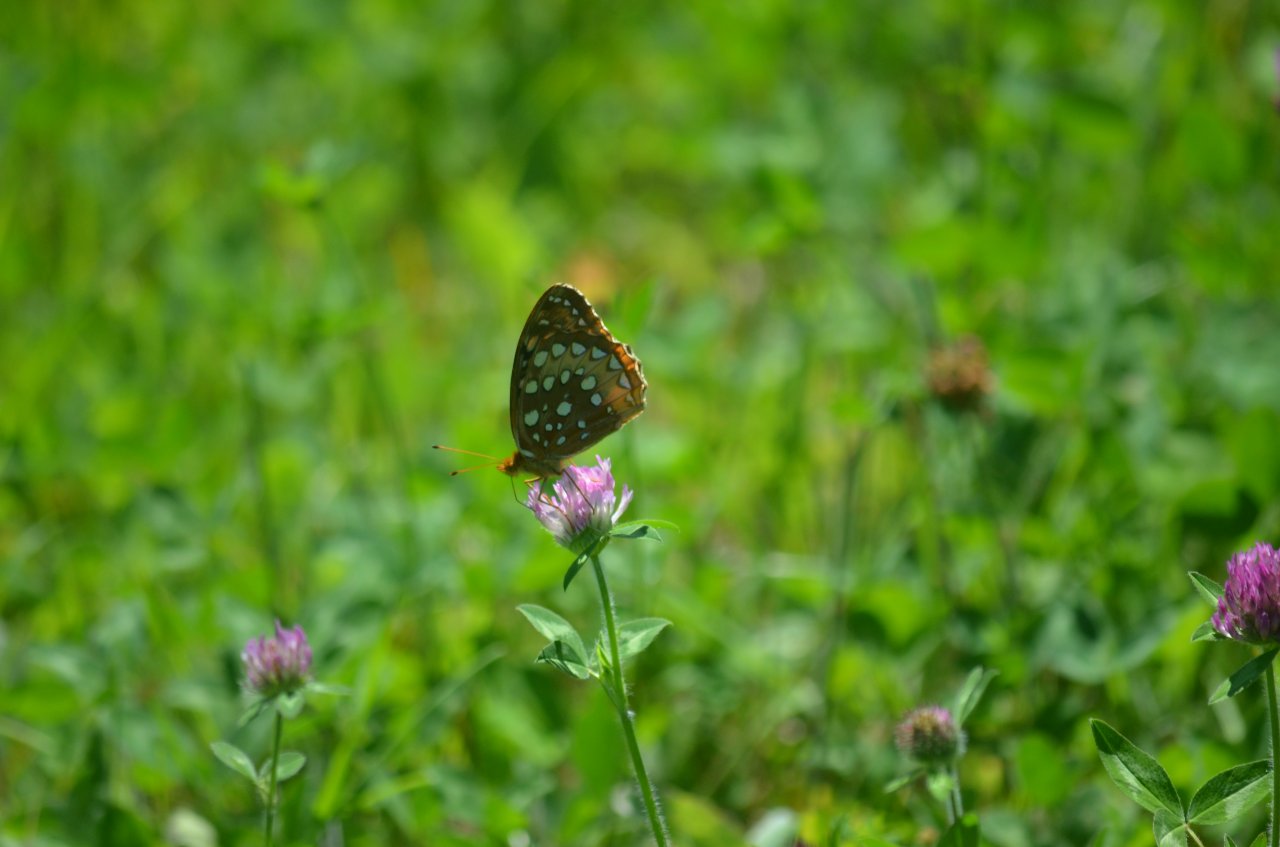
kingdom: Animalia
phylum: Arthropoda
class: Insecta
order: Lepidoptera
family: Nymphalidae
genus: Speyeria
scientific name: Speyeria cybele
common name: Great Spangled Fritillary
